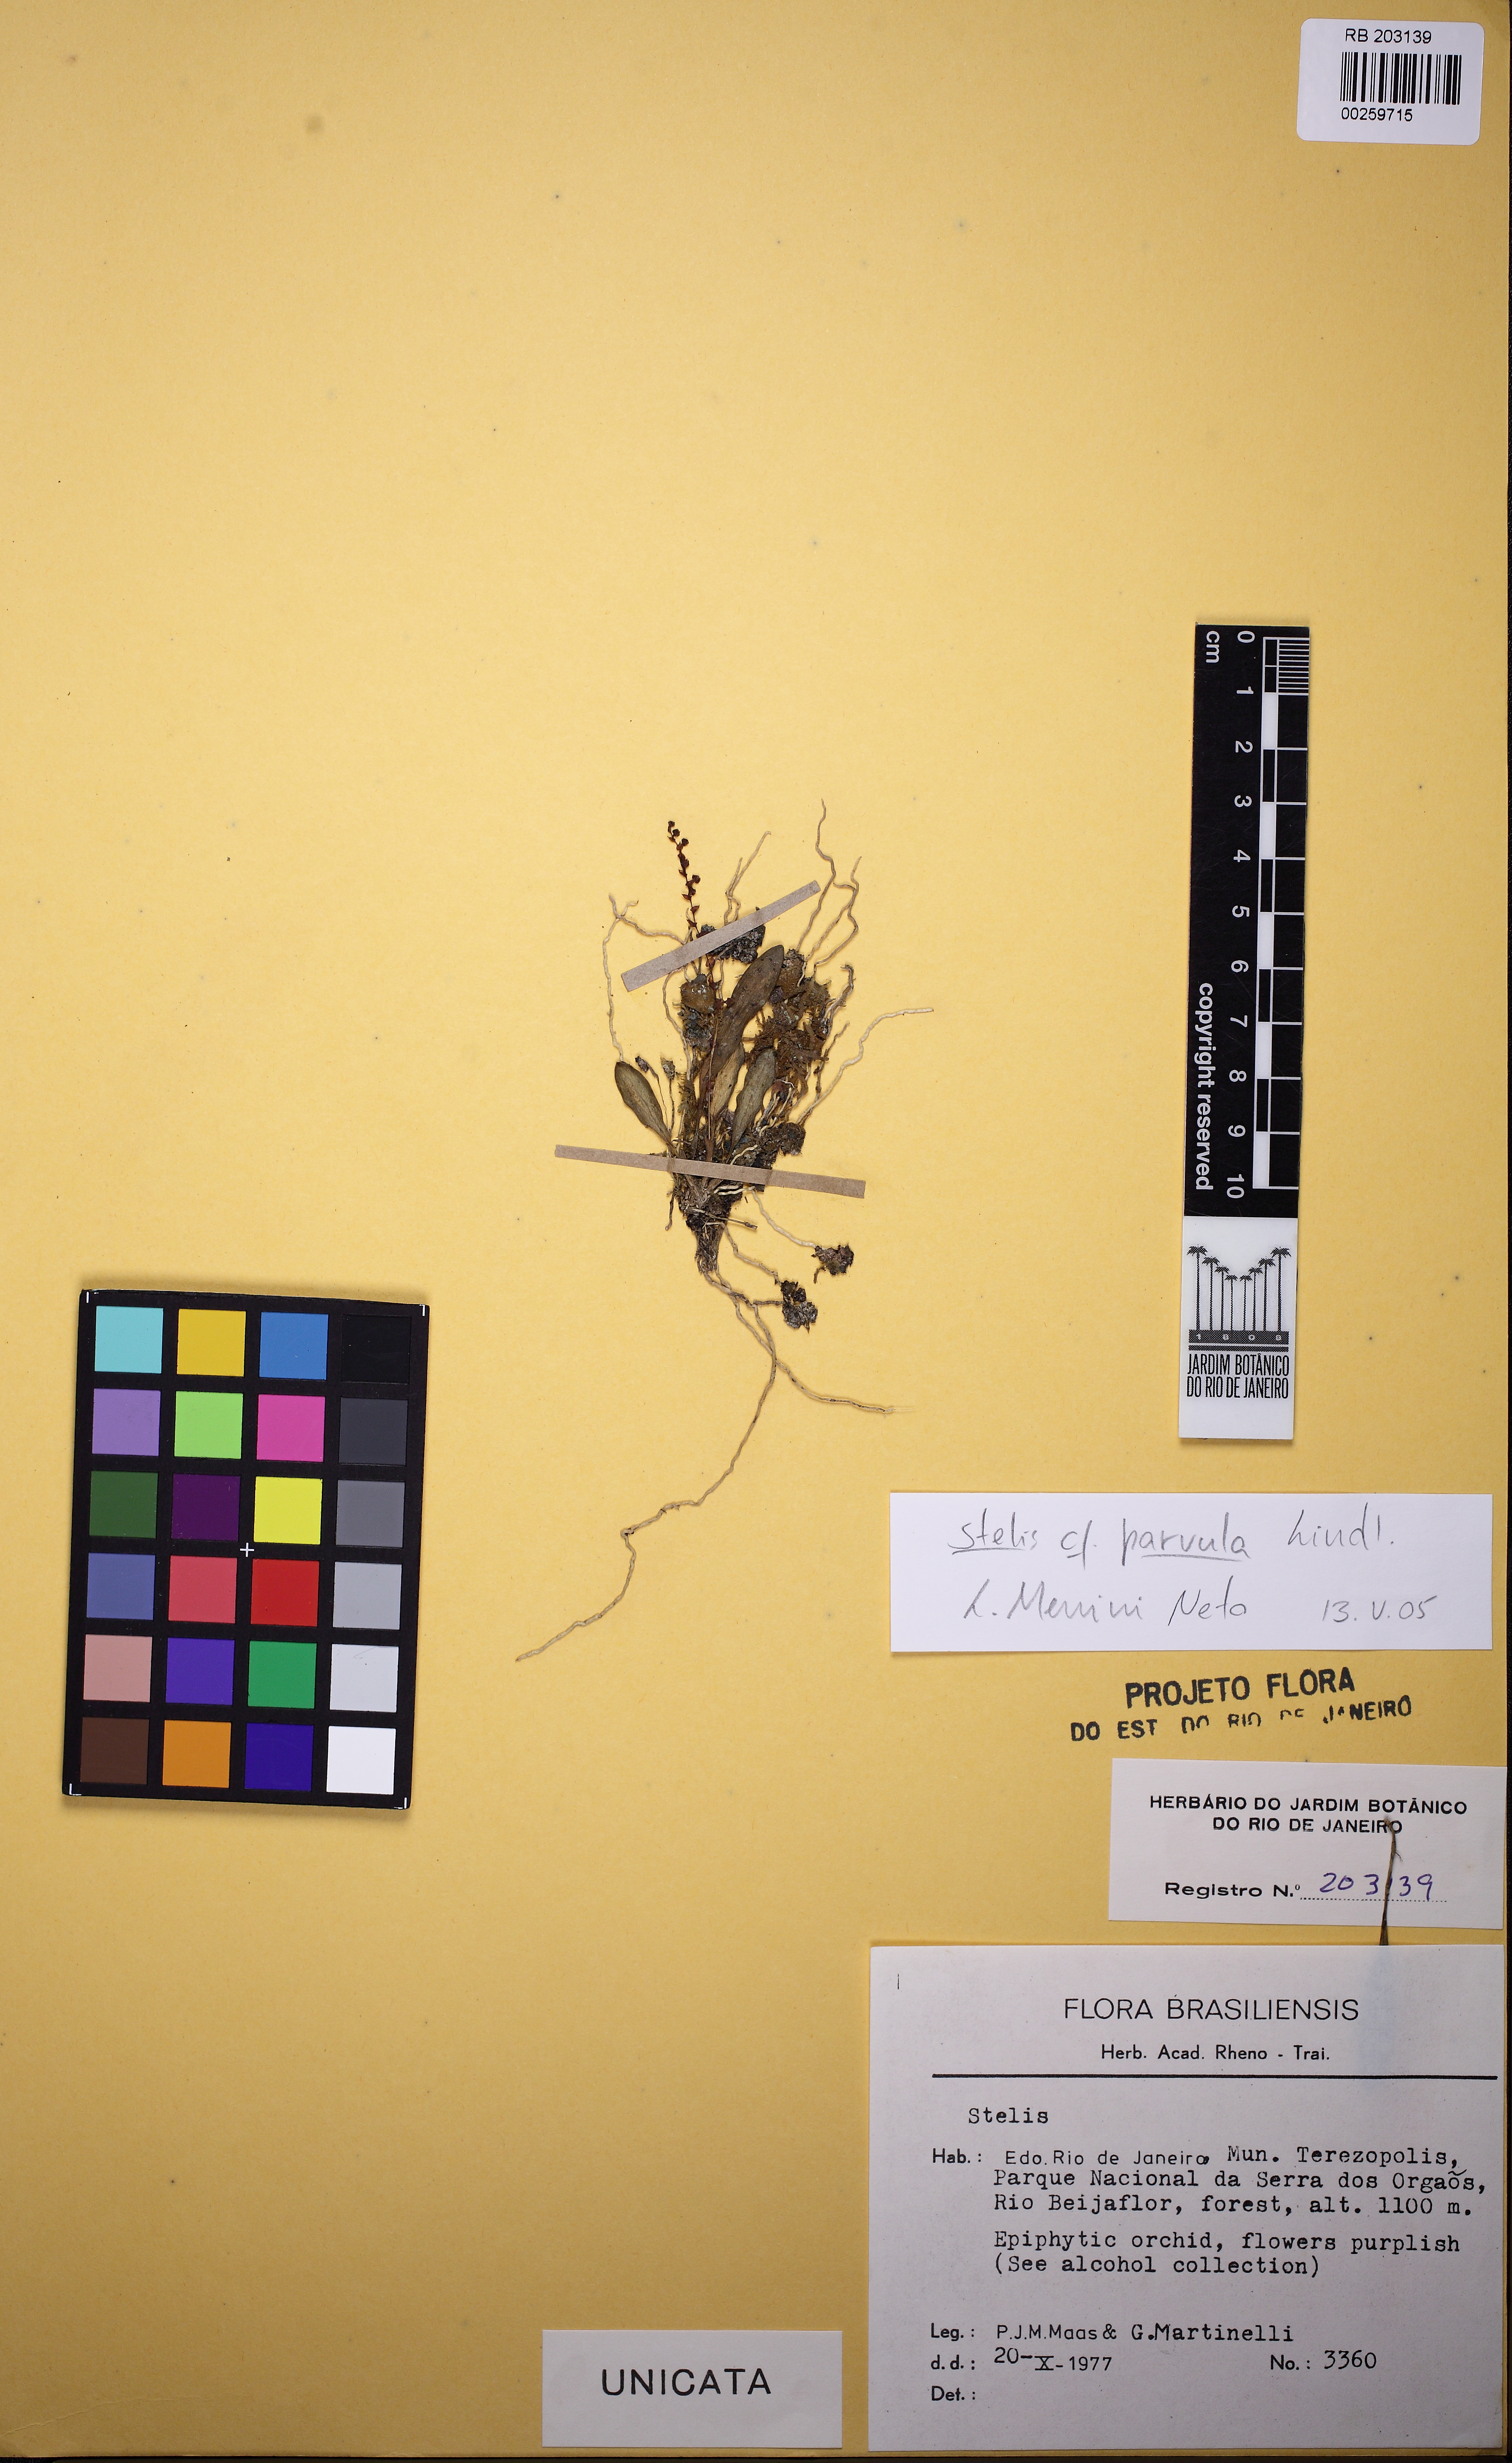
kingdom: Plantae
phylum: Tracheophyta
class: Liliopsida
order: Asparagales
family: Orchidaceae
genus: Stelis
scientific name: Stelis parvula
